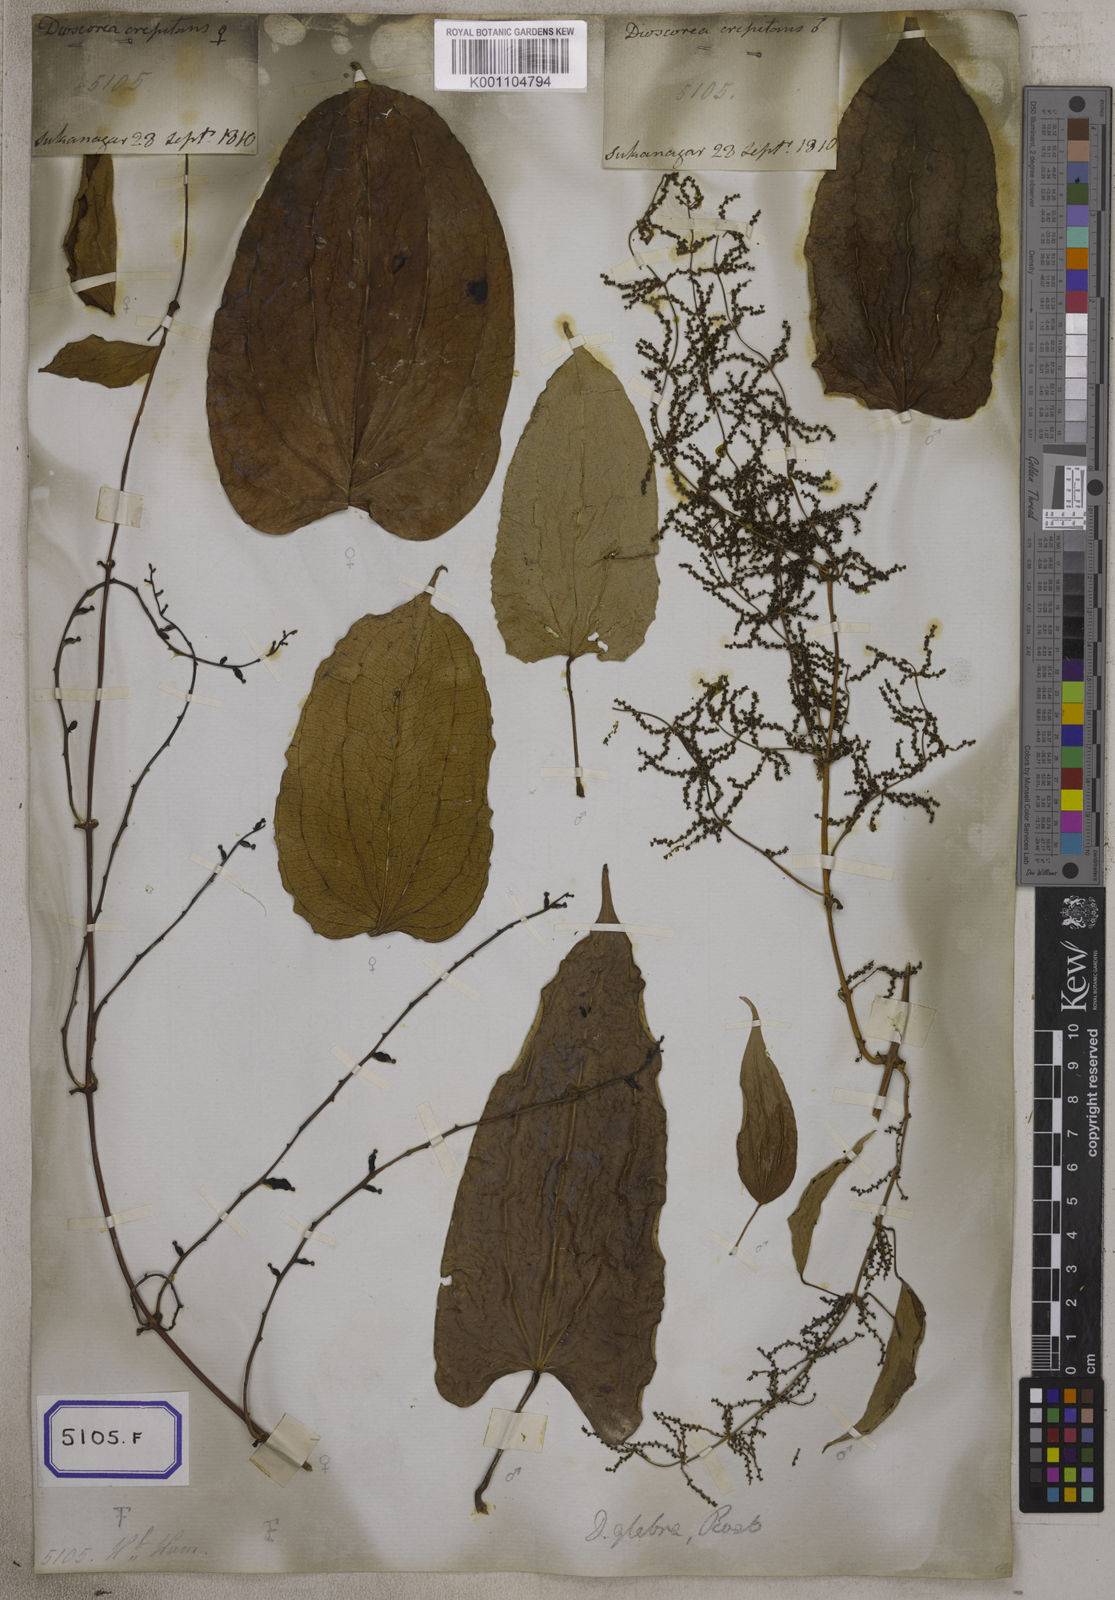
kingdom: Plantae
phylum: Tracheophyta
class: Liliopsida
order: Dioscoreales
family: Dioscoreaceae
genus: Dioscorea
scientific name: Dioscorea glabra
